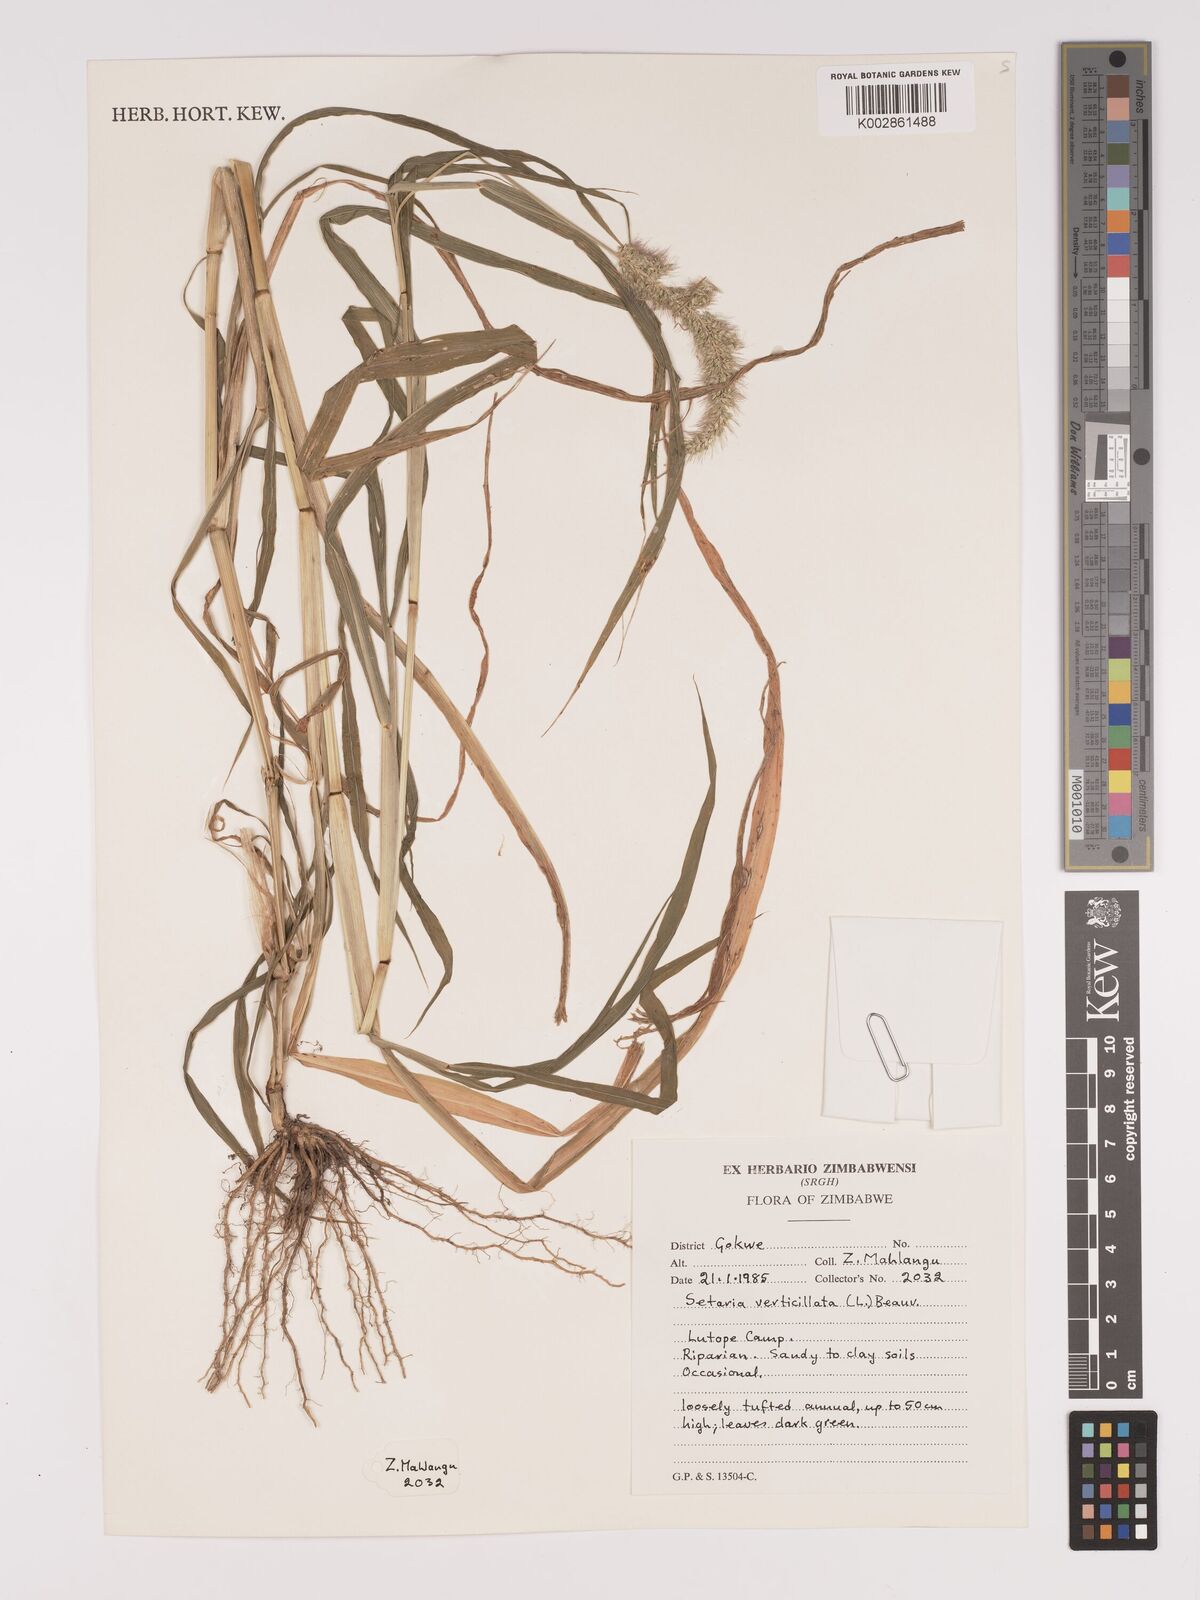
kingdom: Plantae
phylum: Tracheophyta
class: Liliopsida
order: Poales
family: Poaceae
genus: Setaria
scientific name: Setaria verticillata
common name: Hooked bristlegrass
